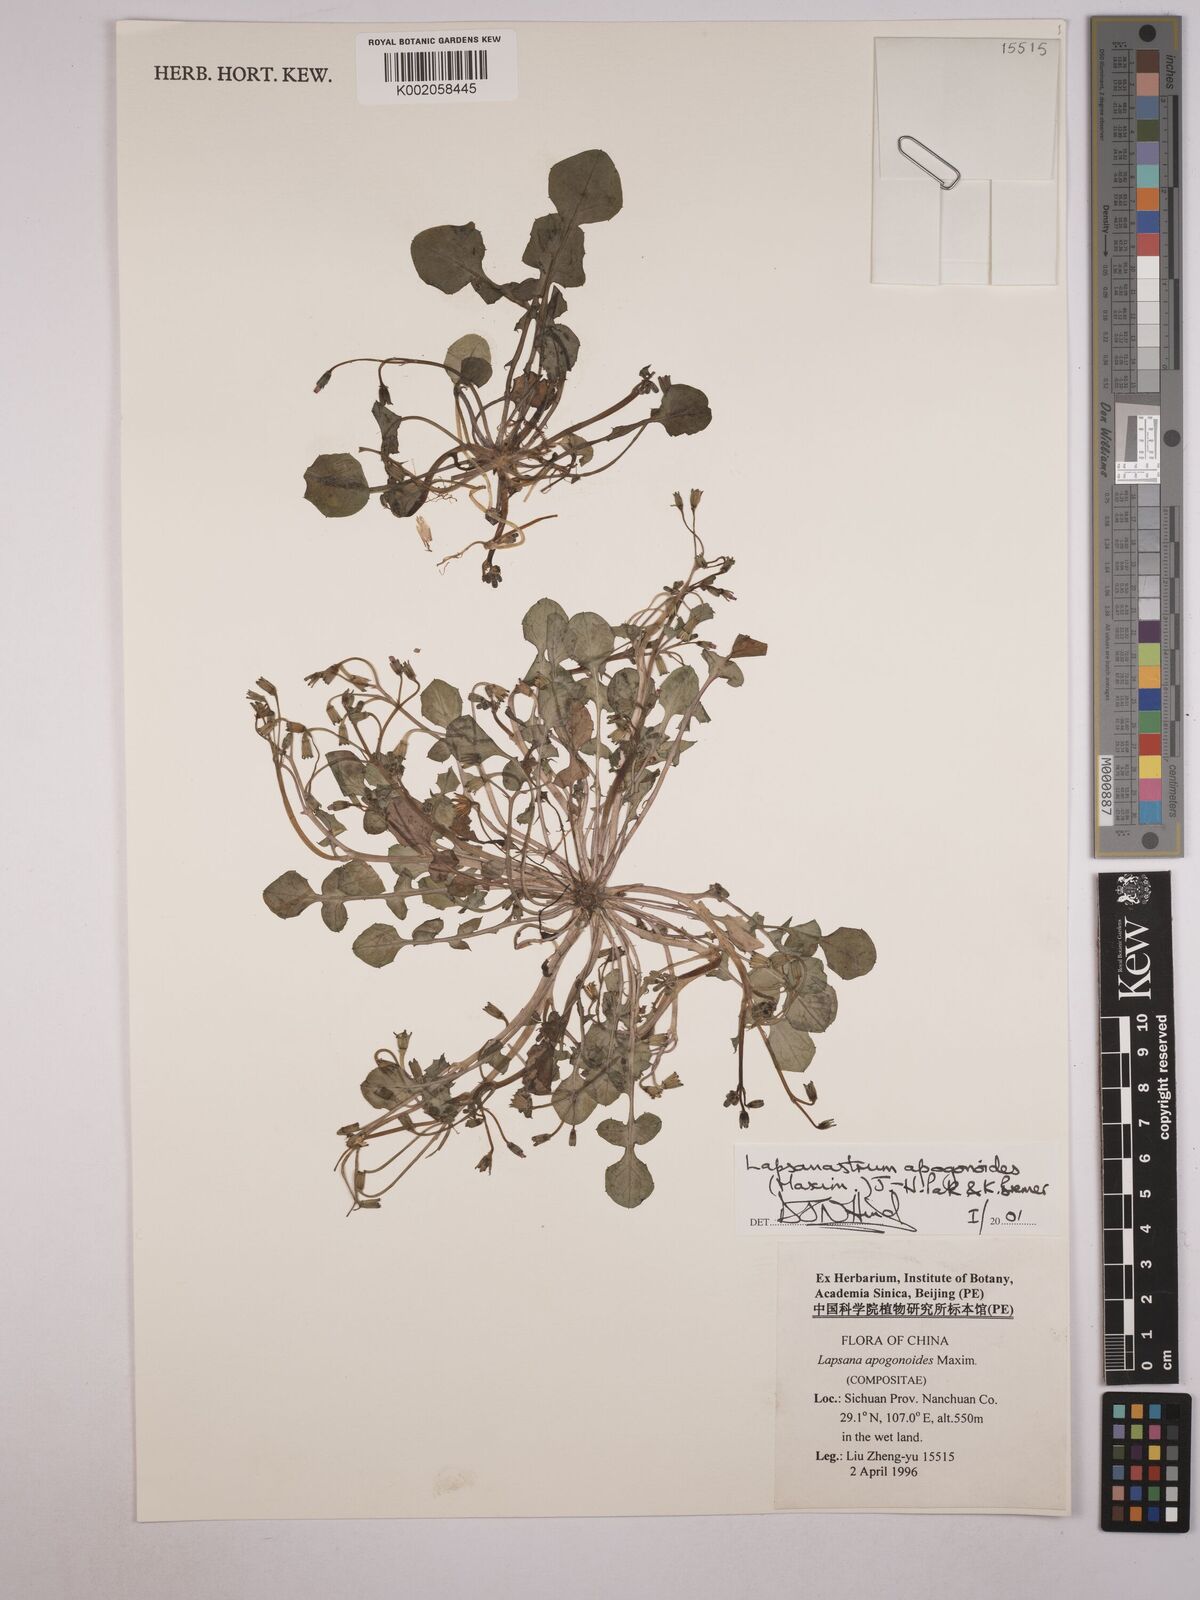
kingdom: Plantae
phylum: Tracheophyta
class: Magnoliopsida
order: Asterales
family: Asteraceae
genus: Lapsanastrum
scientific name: Lapsanastrum apogonoides
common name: Japanese nipplewort
